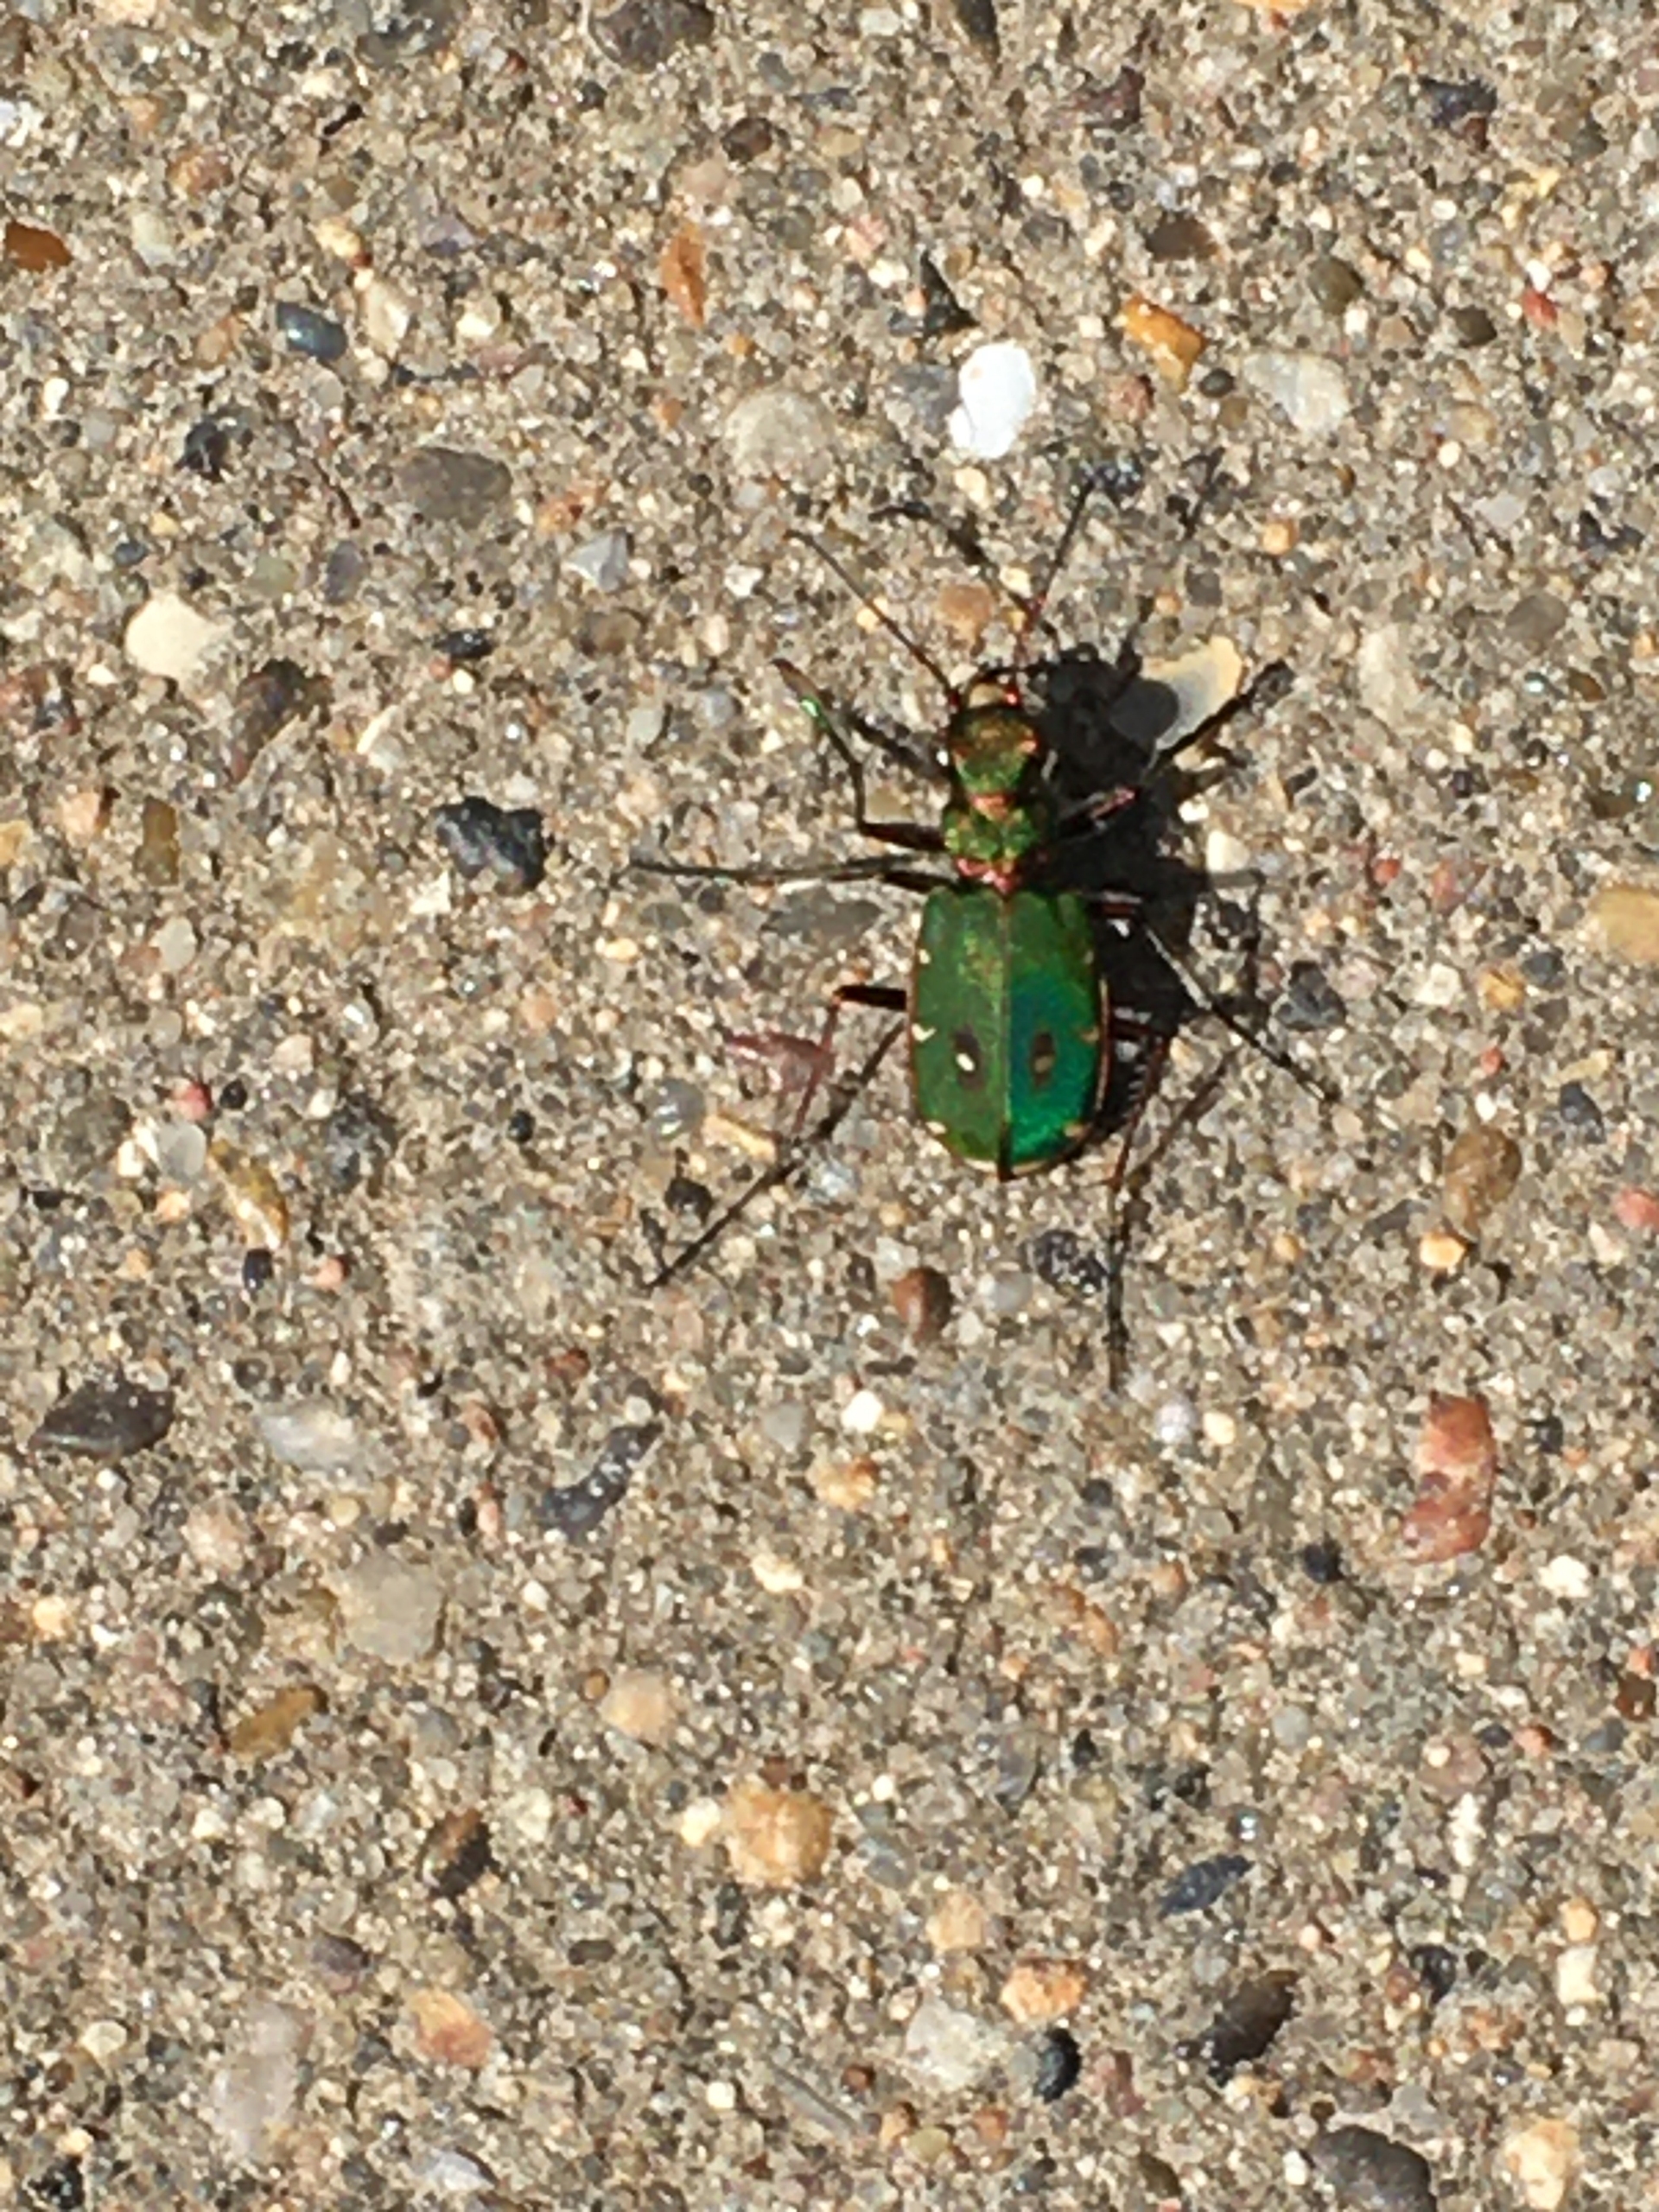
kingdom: Animalia
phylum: Arthropoda
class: Insecta
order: Coleoptera
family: Carabidae
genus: Cicindela
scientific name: Cicindela campestris
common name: Grøn sandspringer
